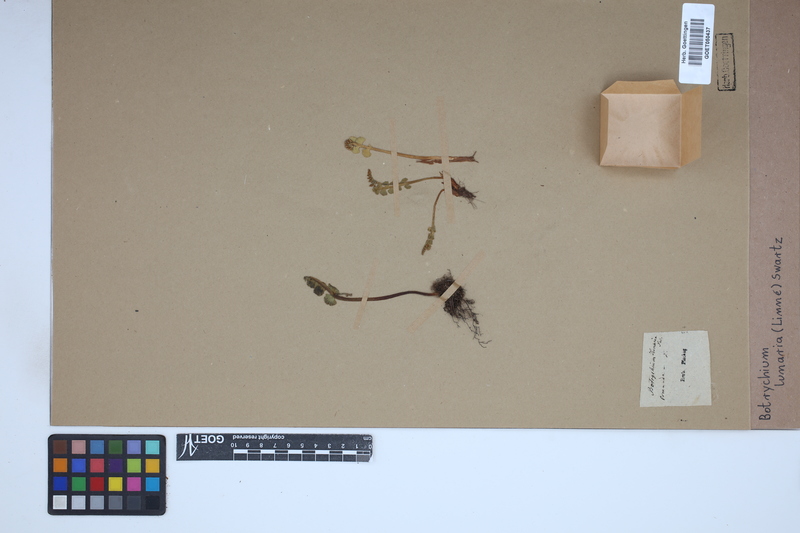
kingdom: Plantae
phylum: Tracheophyta
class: Polypodiopsida
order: Ophioglossales
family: Ophioglossaceae
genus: Botrychium
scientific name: Botrychium lunaria
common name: Moonwort
